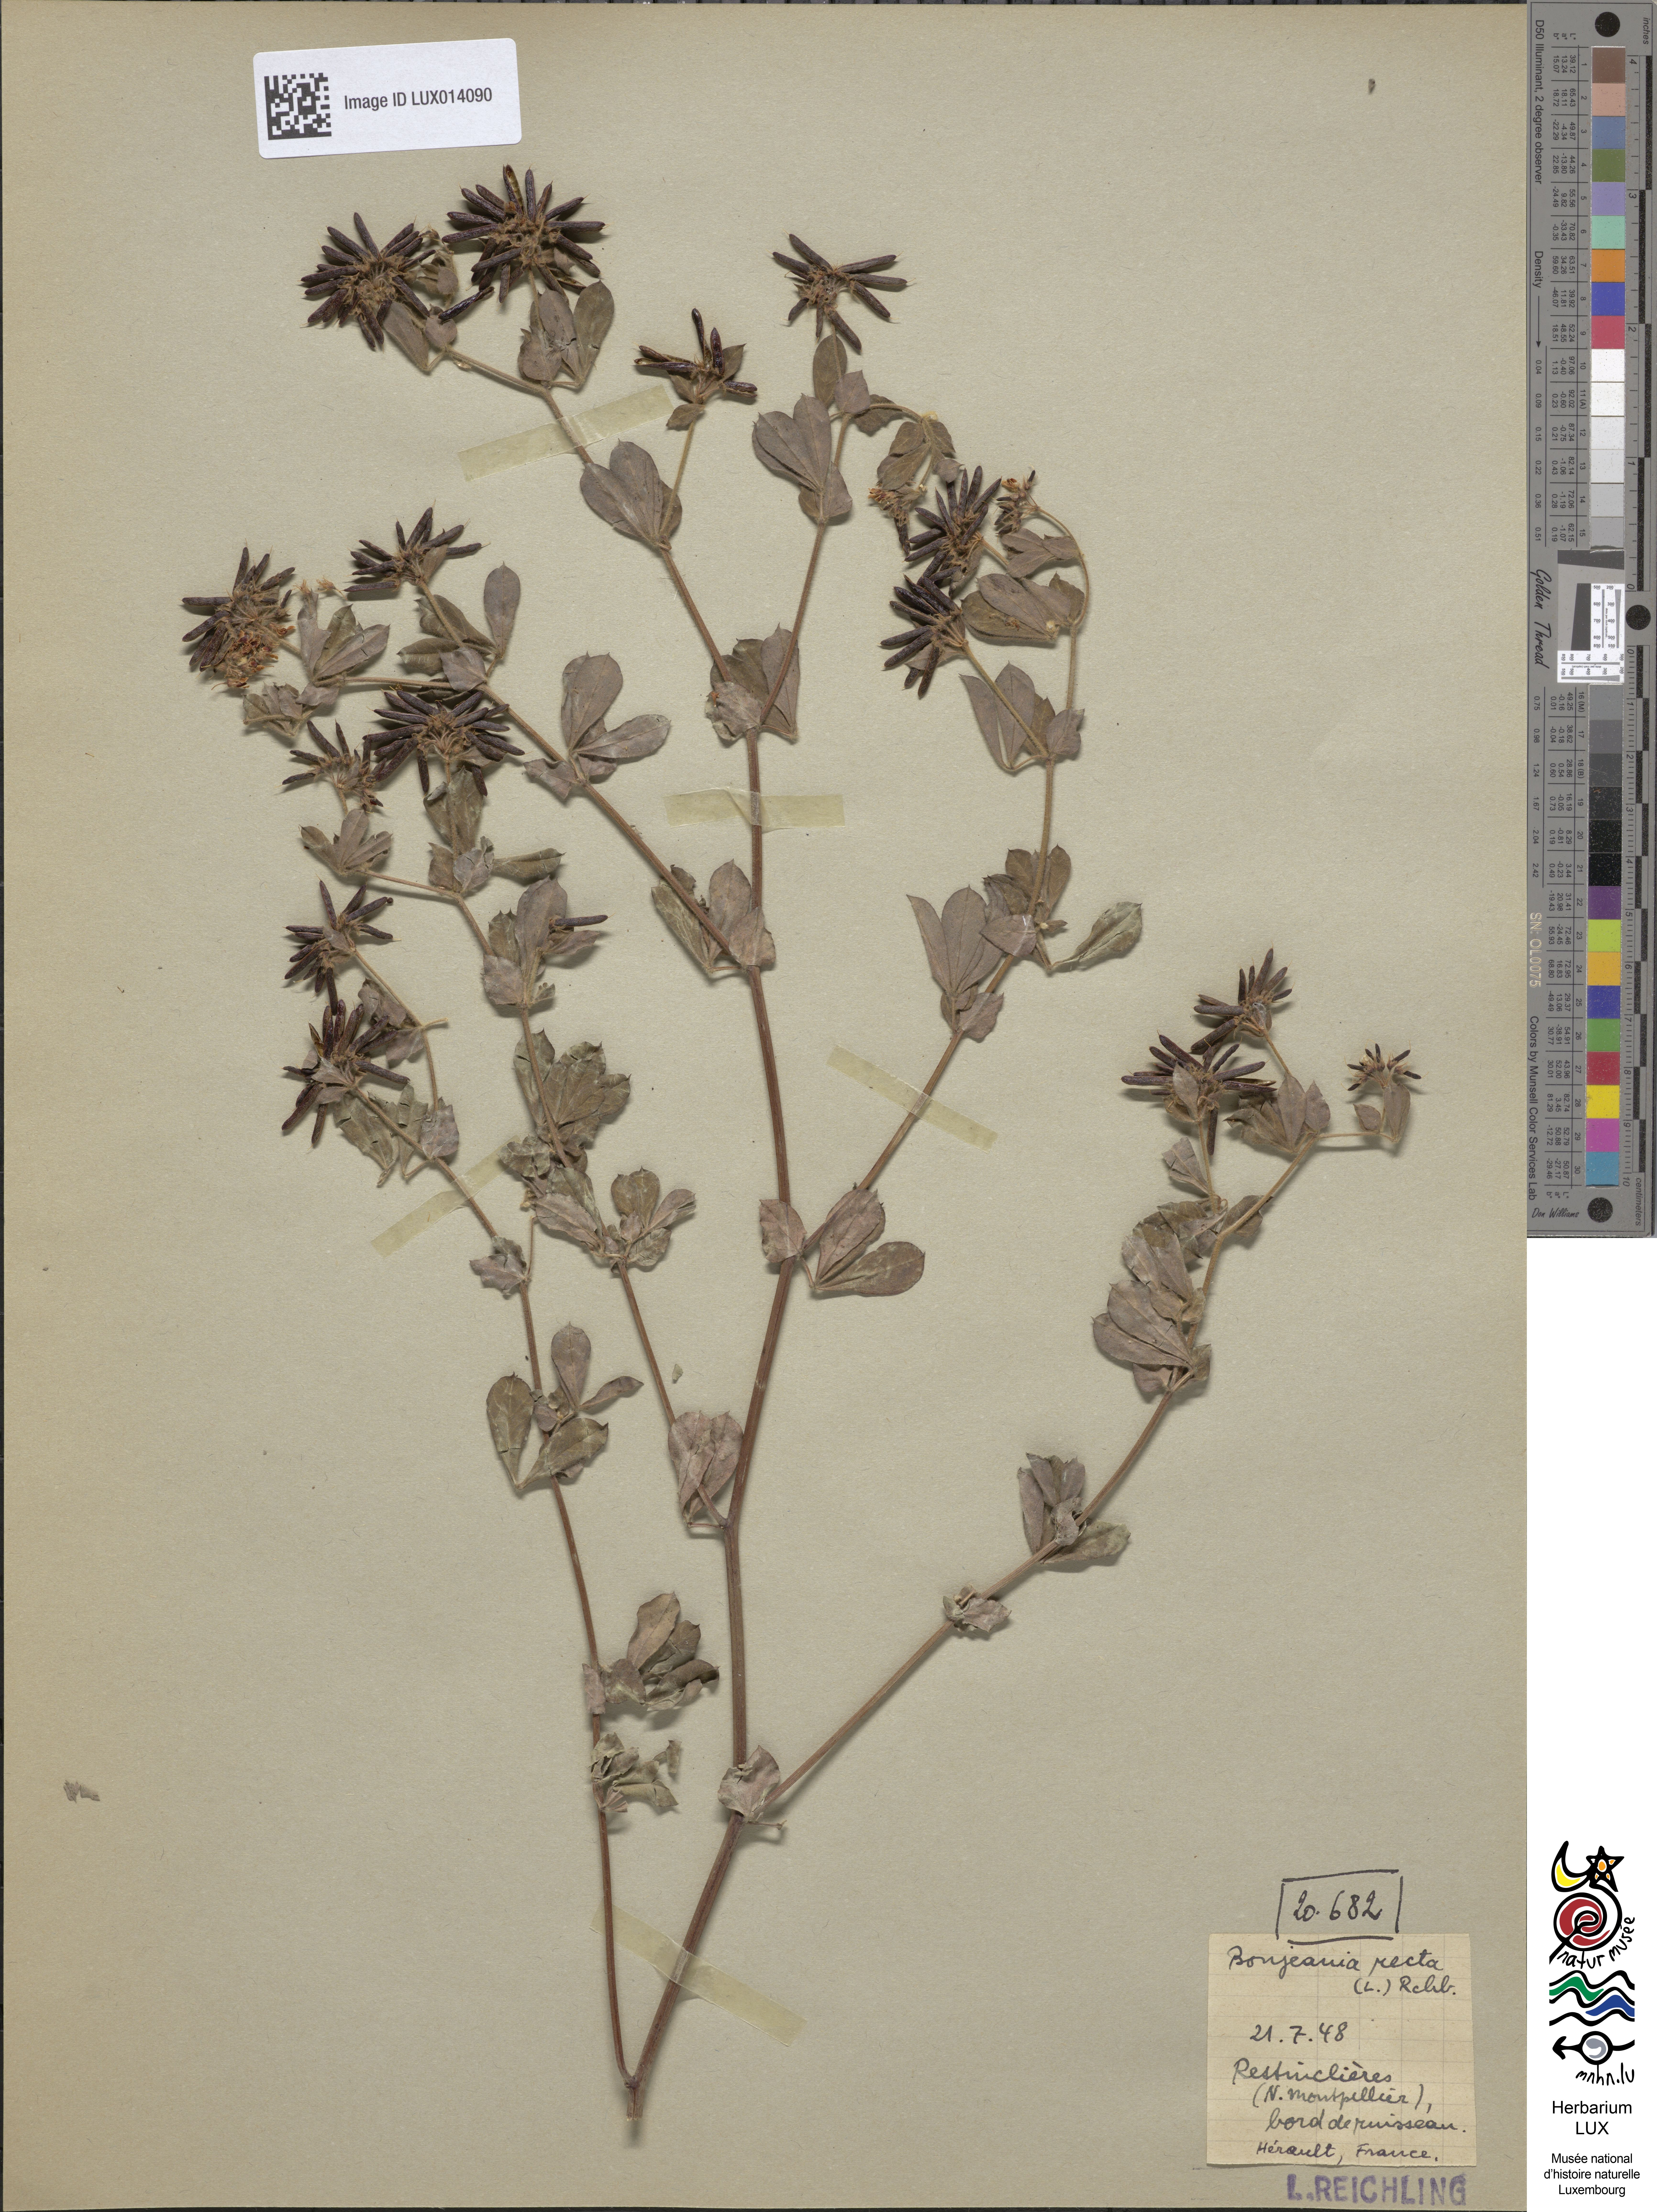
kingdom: Plantae
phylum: Tracheophyta
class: Magnoliopsida
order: Fabales
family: Fabaceae
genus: Lotus
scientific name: Lotus rectus
